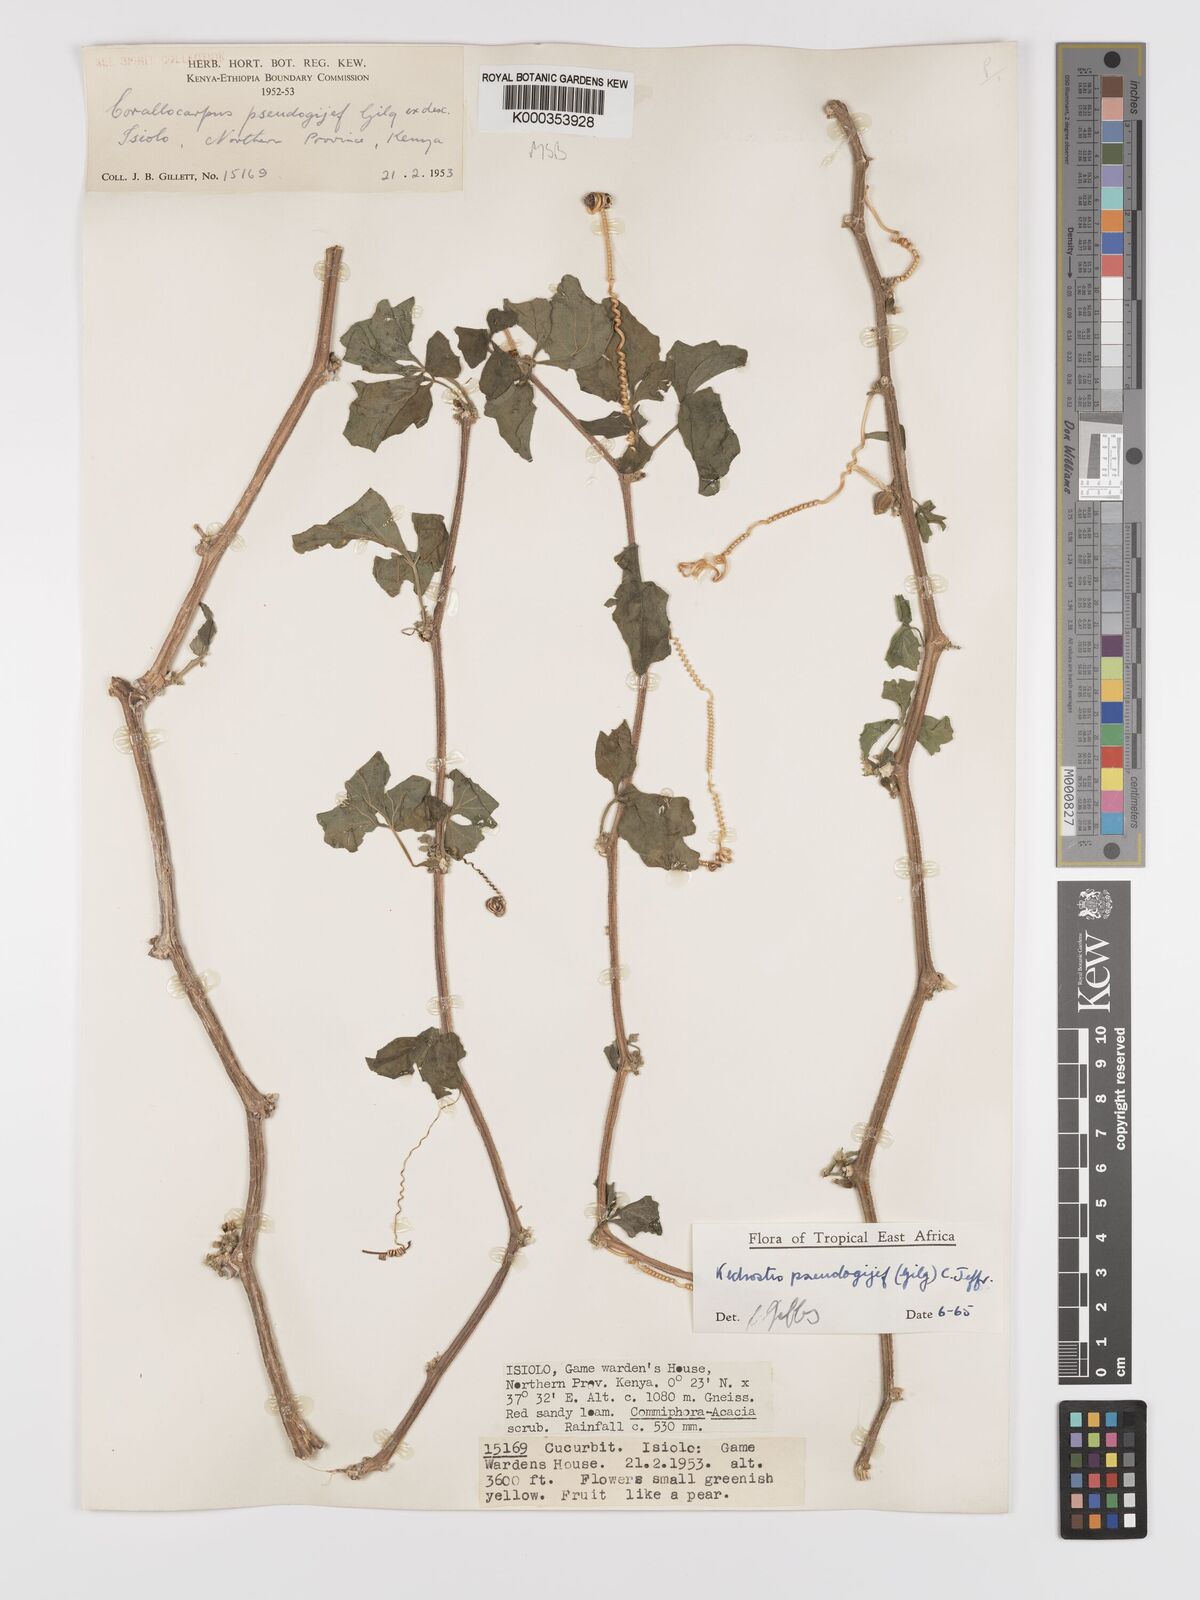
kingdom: Plantae
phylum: Tracheophyta
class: Magnoliopsida
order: Cucurbitales
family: Cucurbitaceae
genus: Kedrostis
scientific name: Kedrostis pseudogijef
